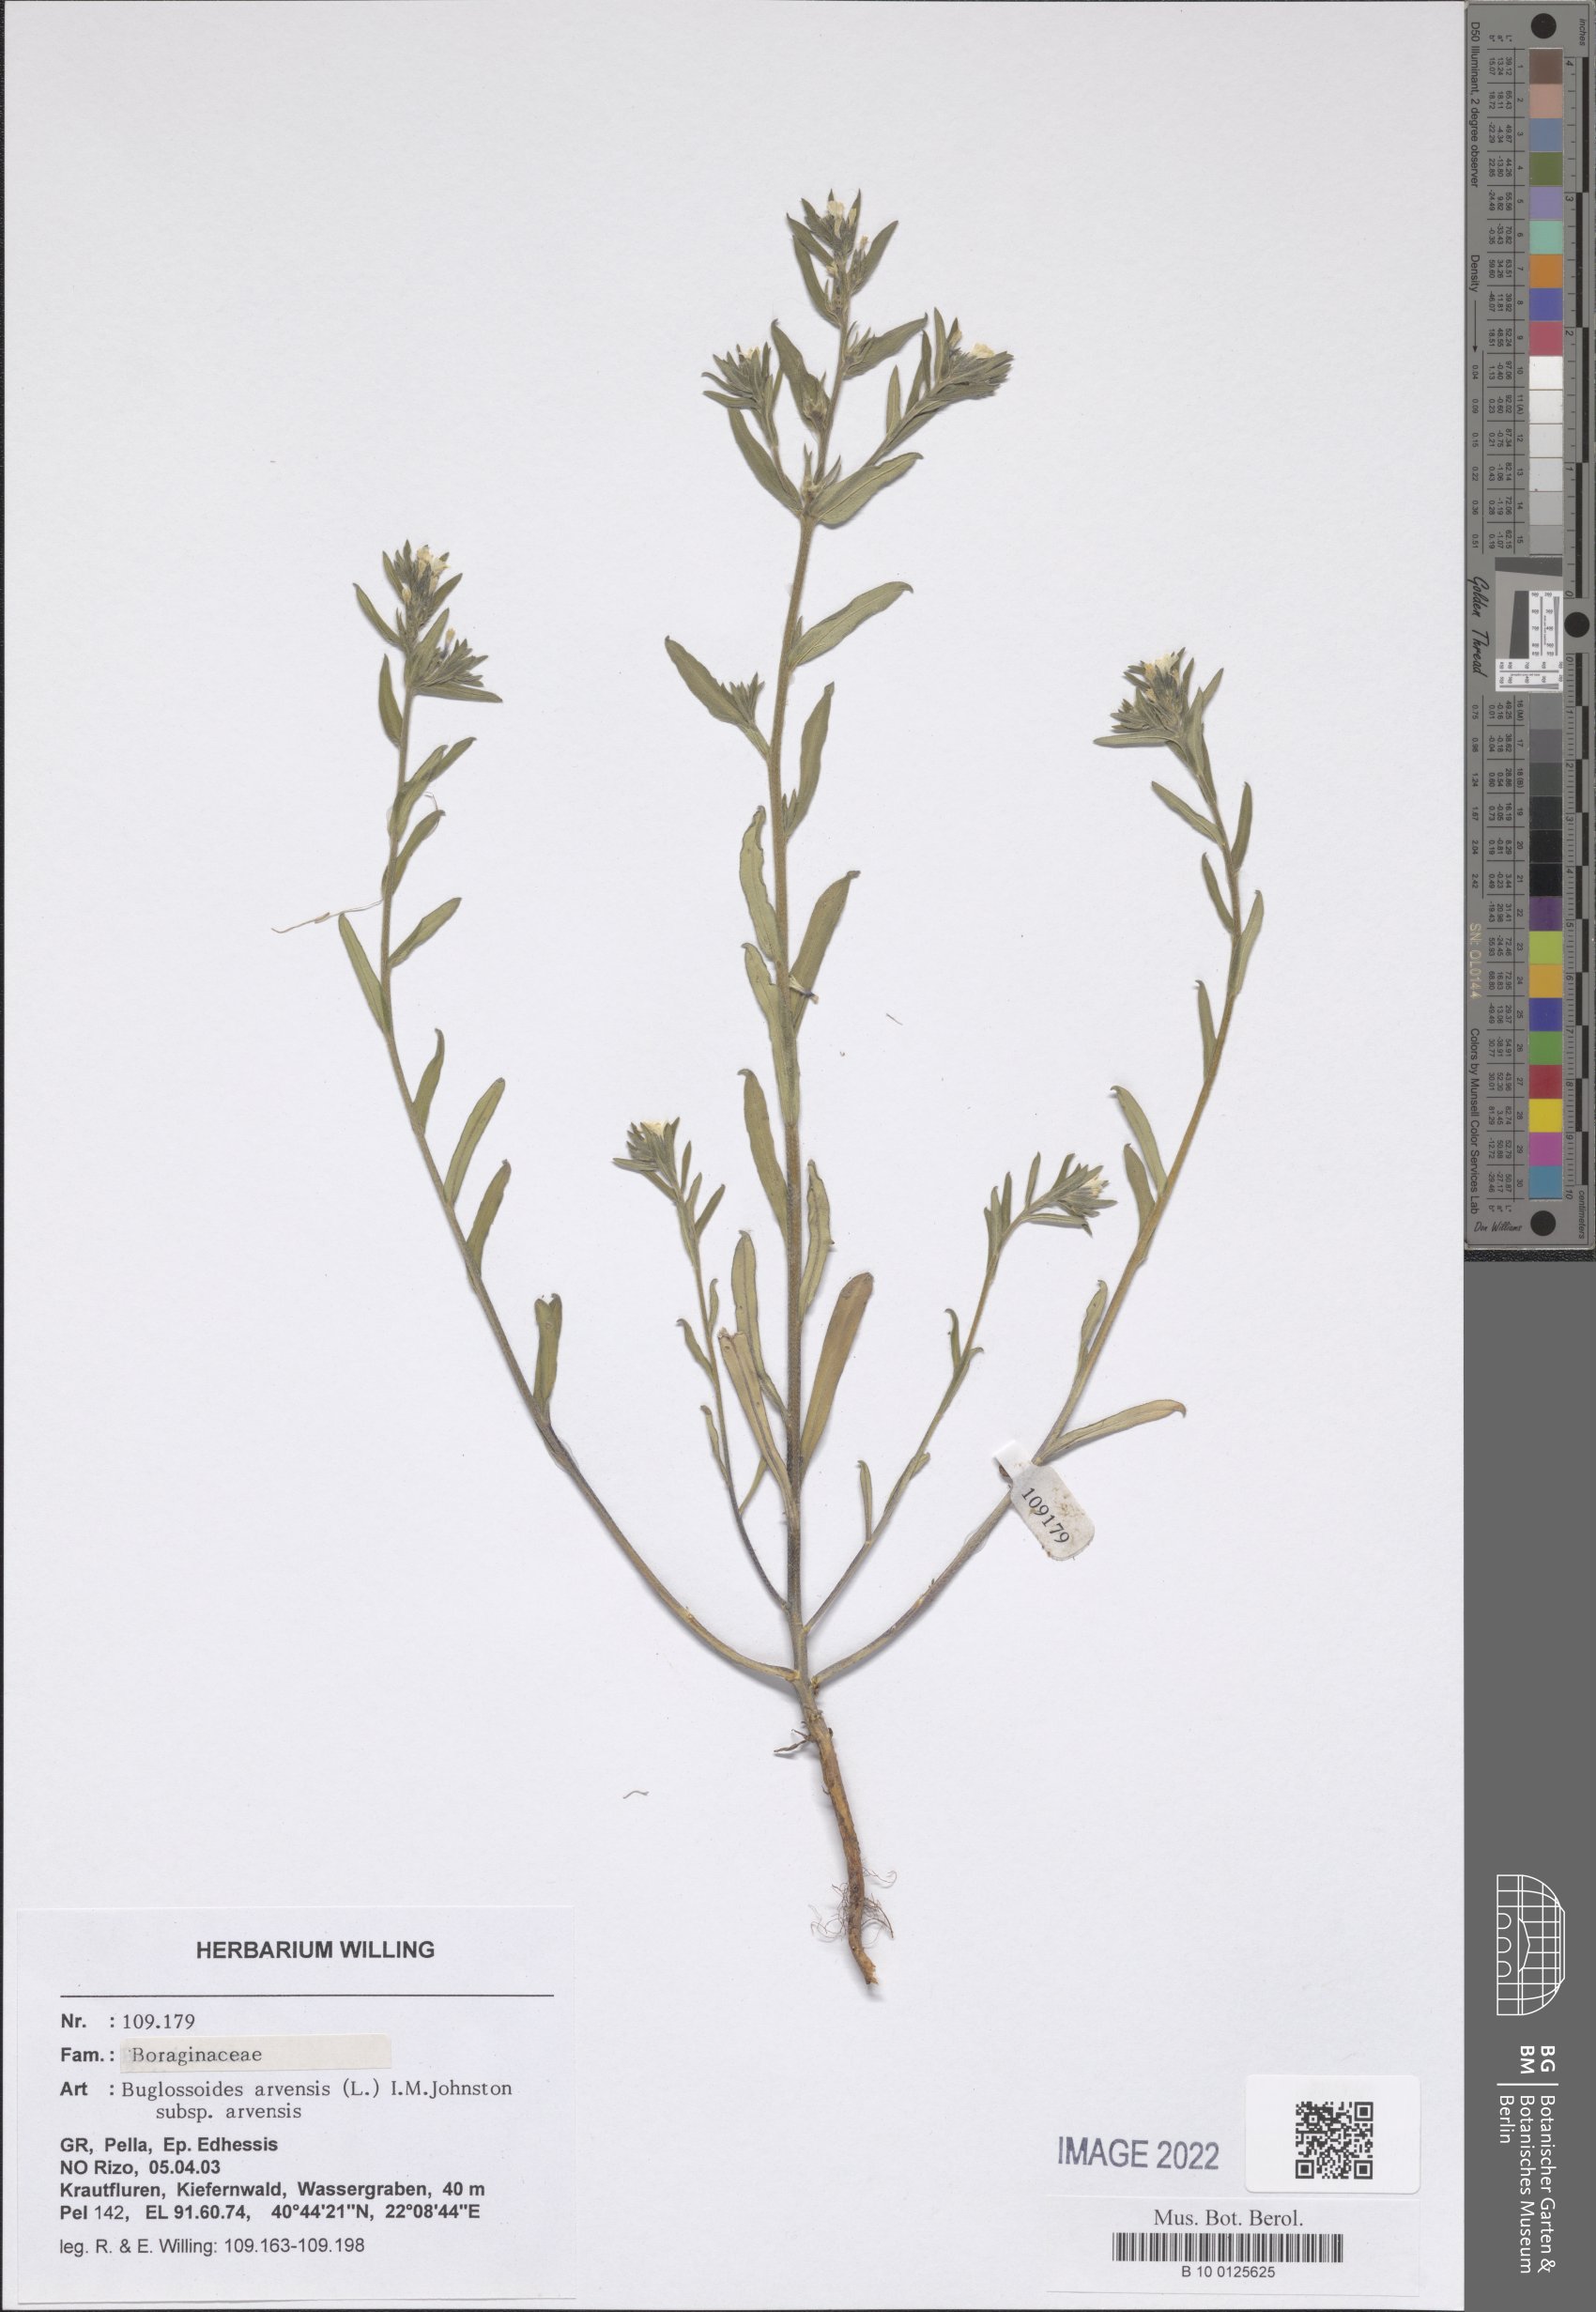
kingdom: Plantae
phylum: Tracheophyta
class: Magnoliopsida
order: Boraginales
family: Boraginaceae
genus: Buglossoides
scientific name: Buglossoides arvensis
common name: Corn gromwell
